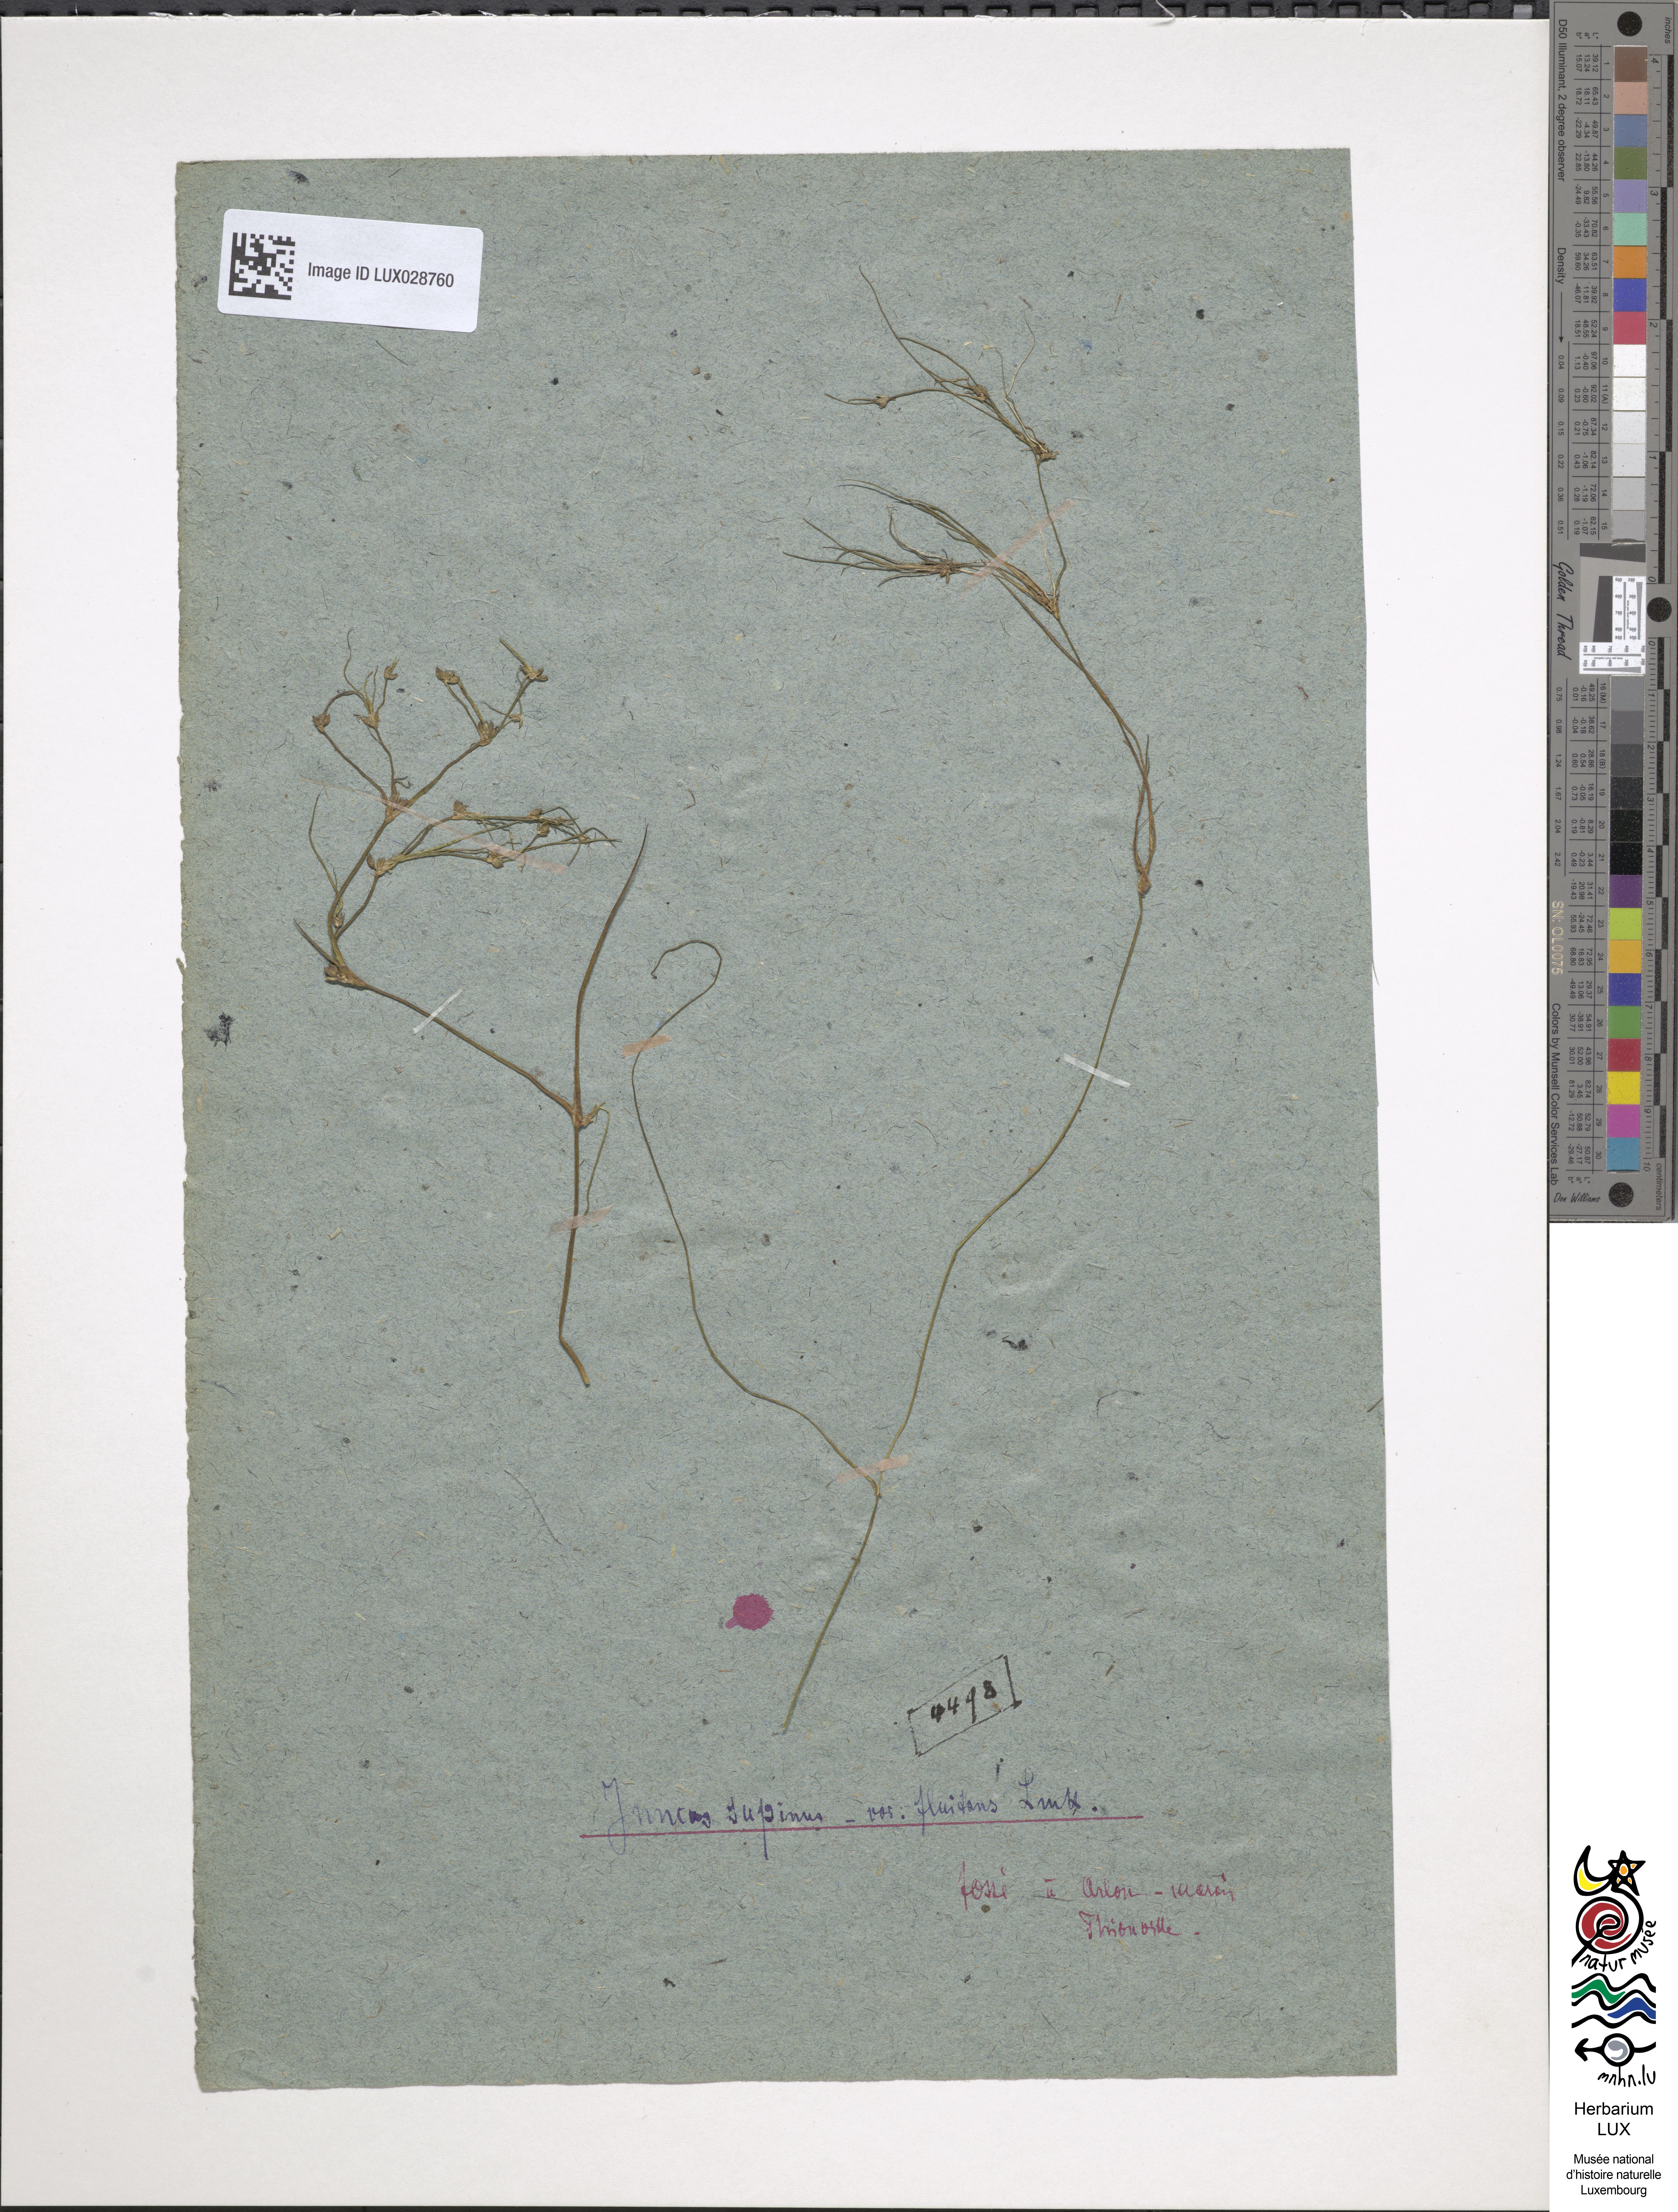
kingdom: Plantae
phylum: Tracheophyta
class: Liliopsida
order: Poales
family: Juncaceae
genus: Juncus
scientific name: Juncus bulbosus
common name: Bulbous rush
